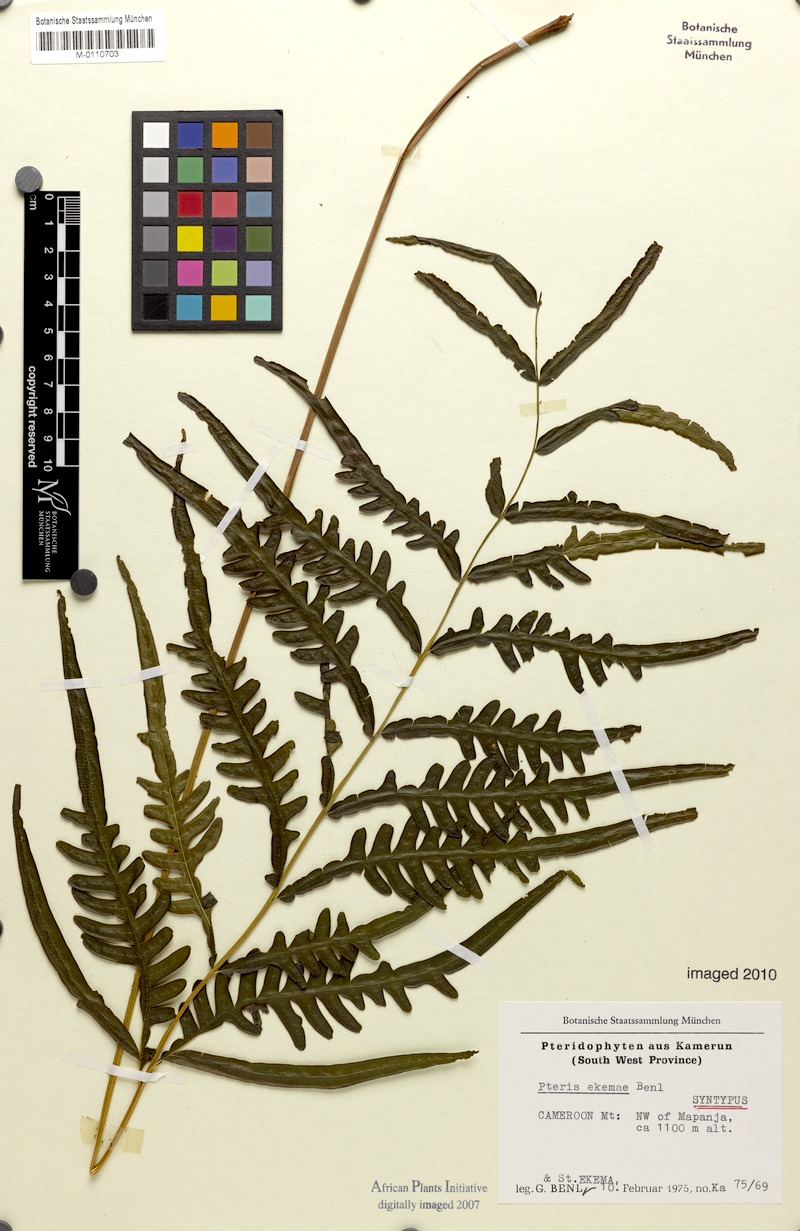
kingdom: Plantae
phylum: Tracheophyta
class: Polypodiopsida
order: Polypodiales
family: Pteridaceae
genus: Pteris
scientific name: Pteris ekemae
